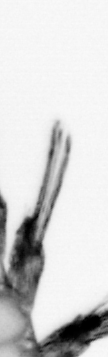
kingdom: Animalia
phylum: Annelida
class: Polychaeta
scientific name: Polychaeta
